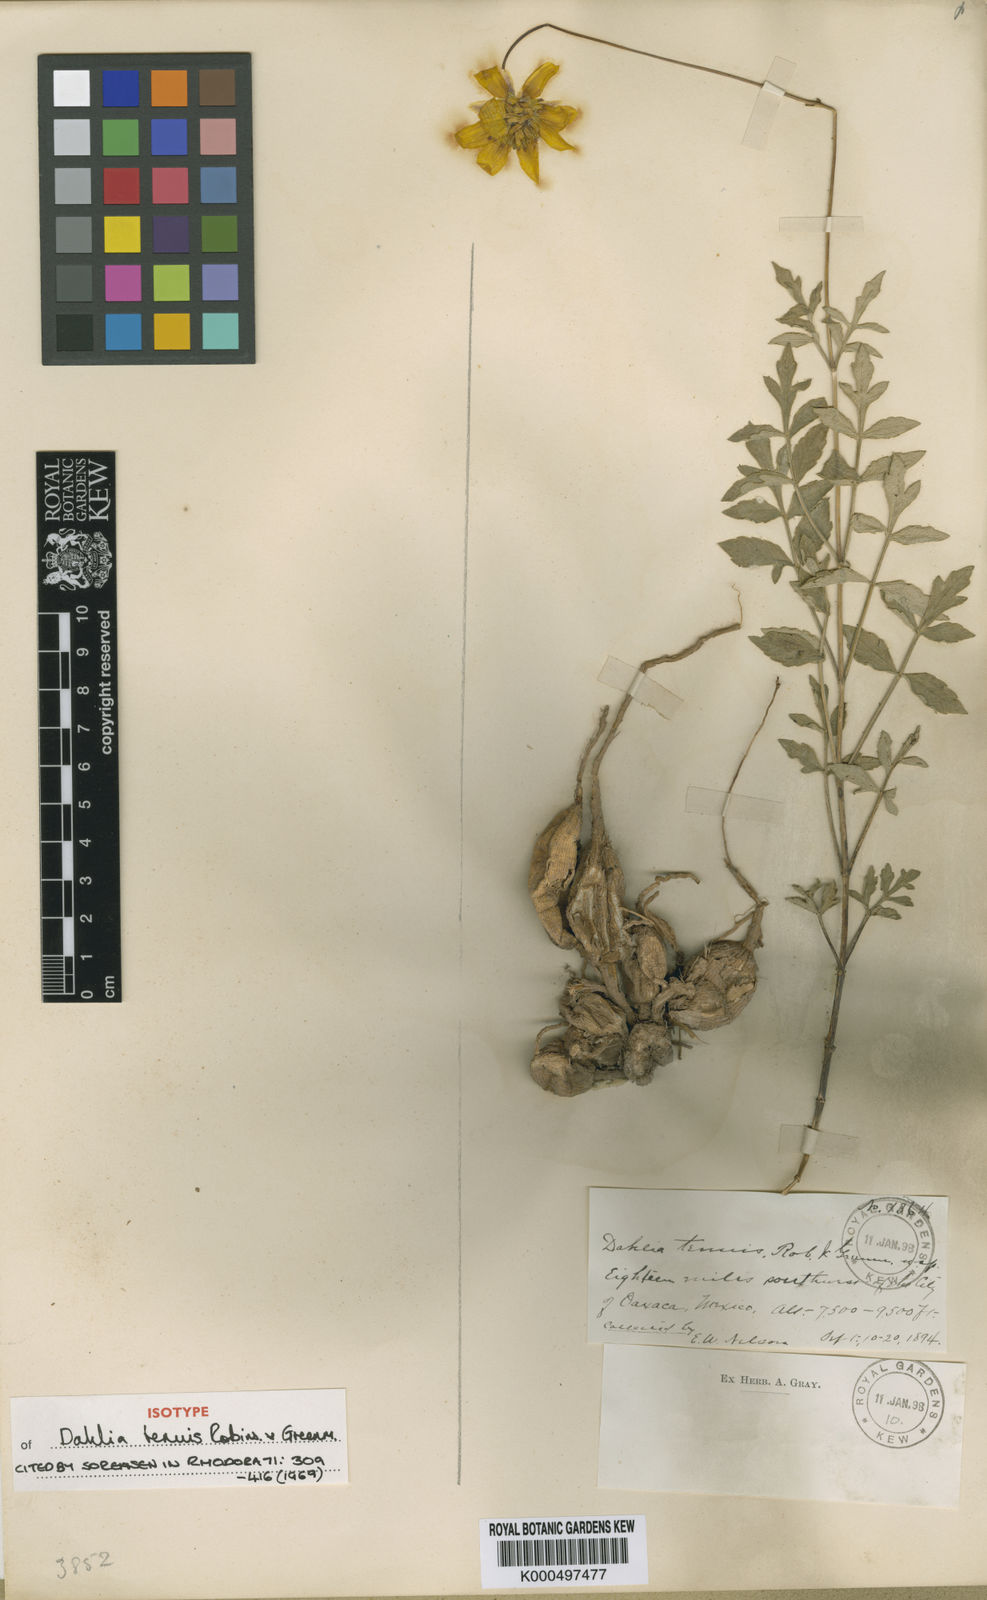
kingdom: Plantae
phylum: Tracheophyta
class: Magnoliopsida
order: Asterales
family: Asteraceae
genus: Dahlia
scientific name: Dahlia tenuis
